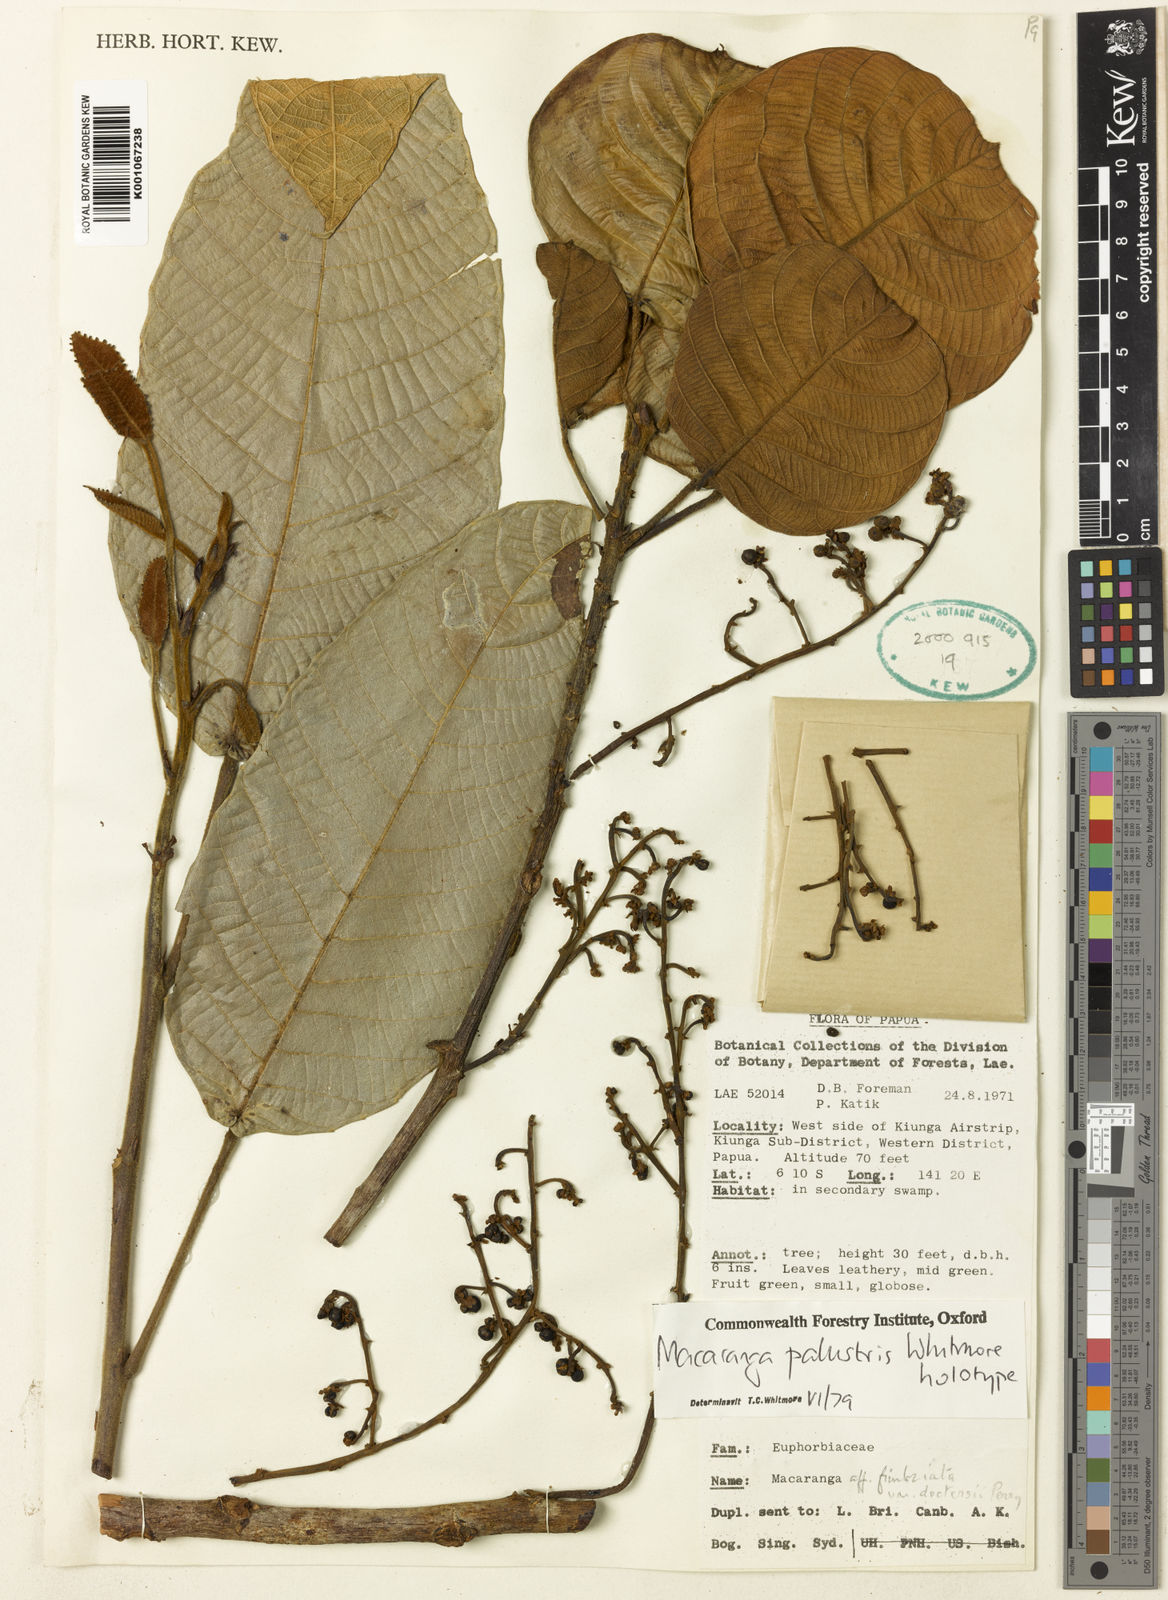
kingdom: Plantae
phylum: Tracheophyta
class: Magnoliopsida
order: Malpighiales
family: Euphorbiaceae
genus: Macaranga
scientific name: Macaranga palustris
